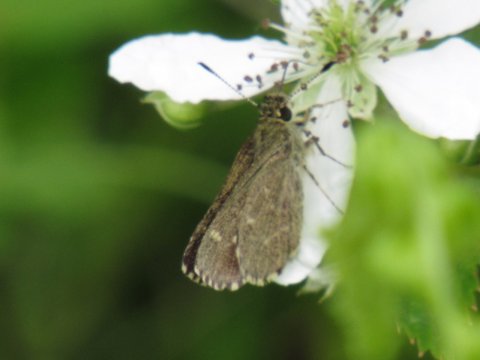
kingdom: Animalia
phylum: Arthropoda
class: Insecta
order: Lepidoptera
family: Hesperiidae
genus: Mastor
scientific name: Mastor hegon
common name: Pepper and Salt Skipper
